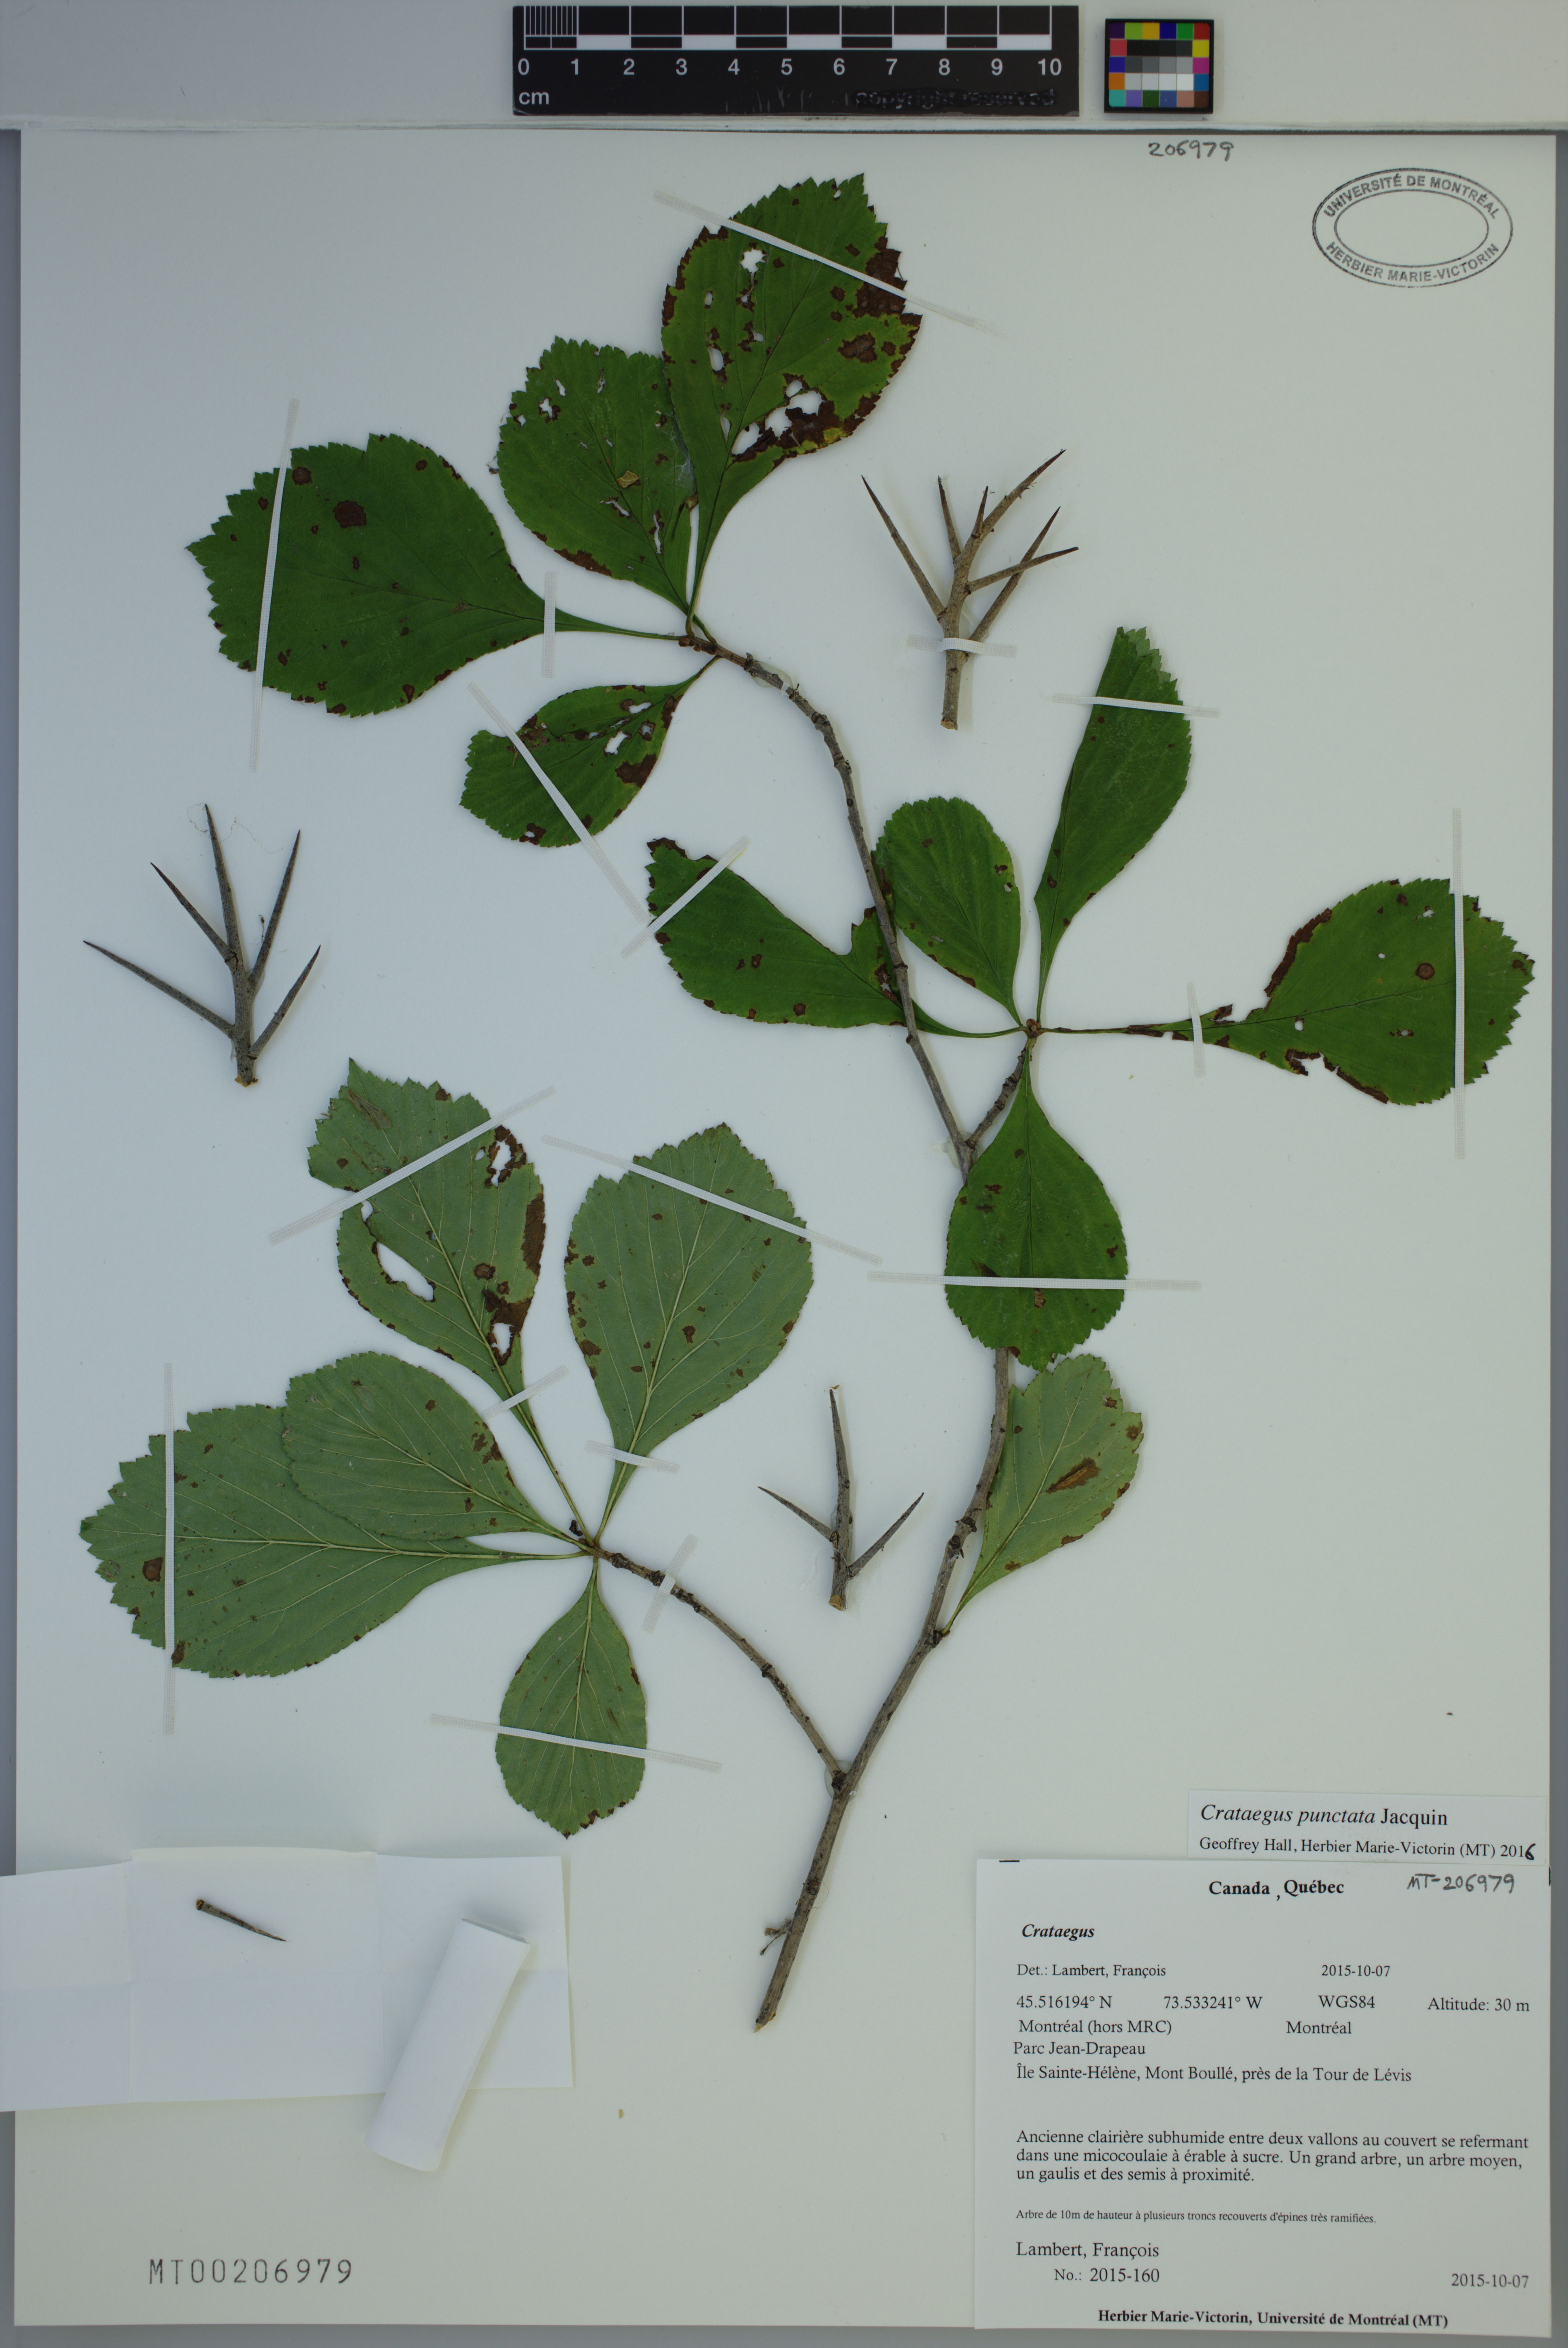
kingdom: Plantae
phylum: Tracheophyta
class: Magnoliopsida
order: Rosales
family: Rosaceae
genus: Crataegus
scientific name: Crataegus punctata
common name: Dotted hawthorn
